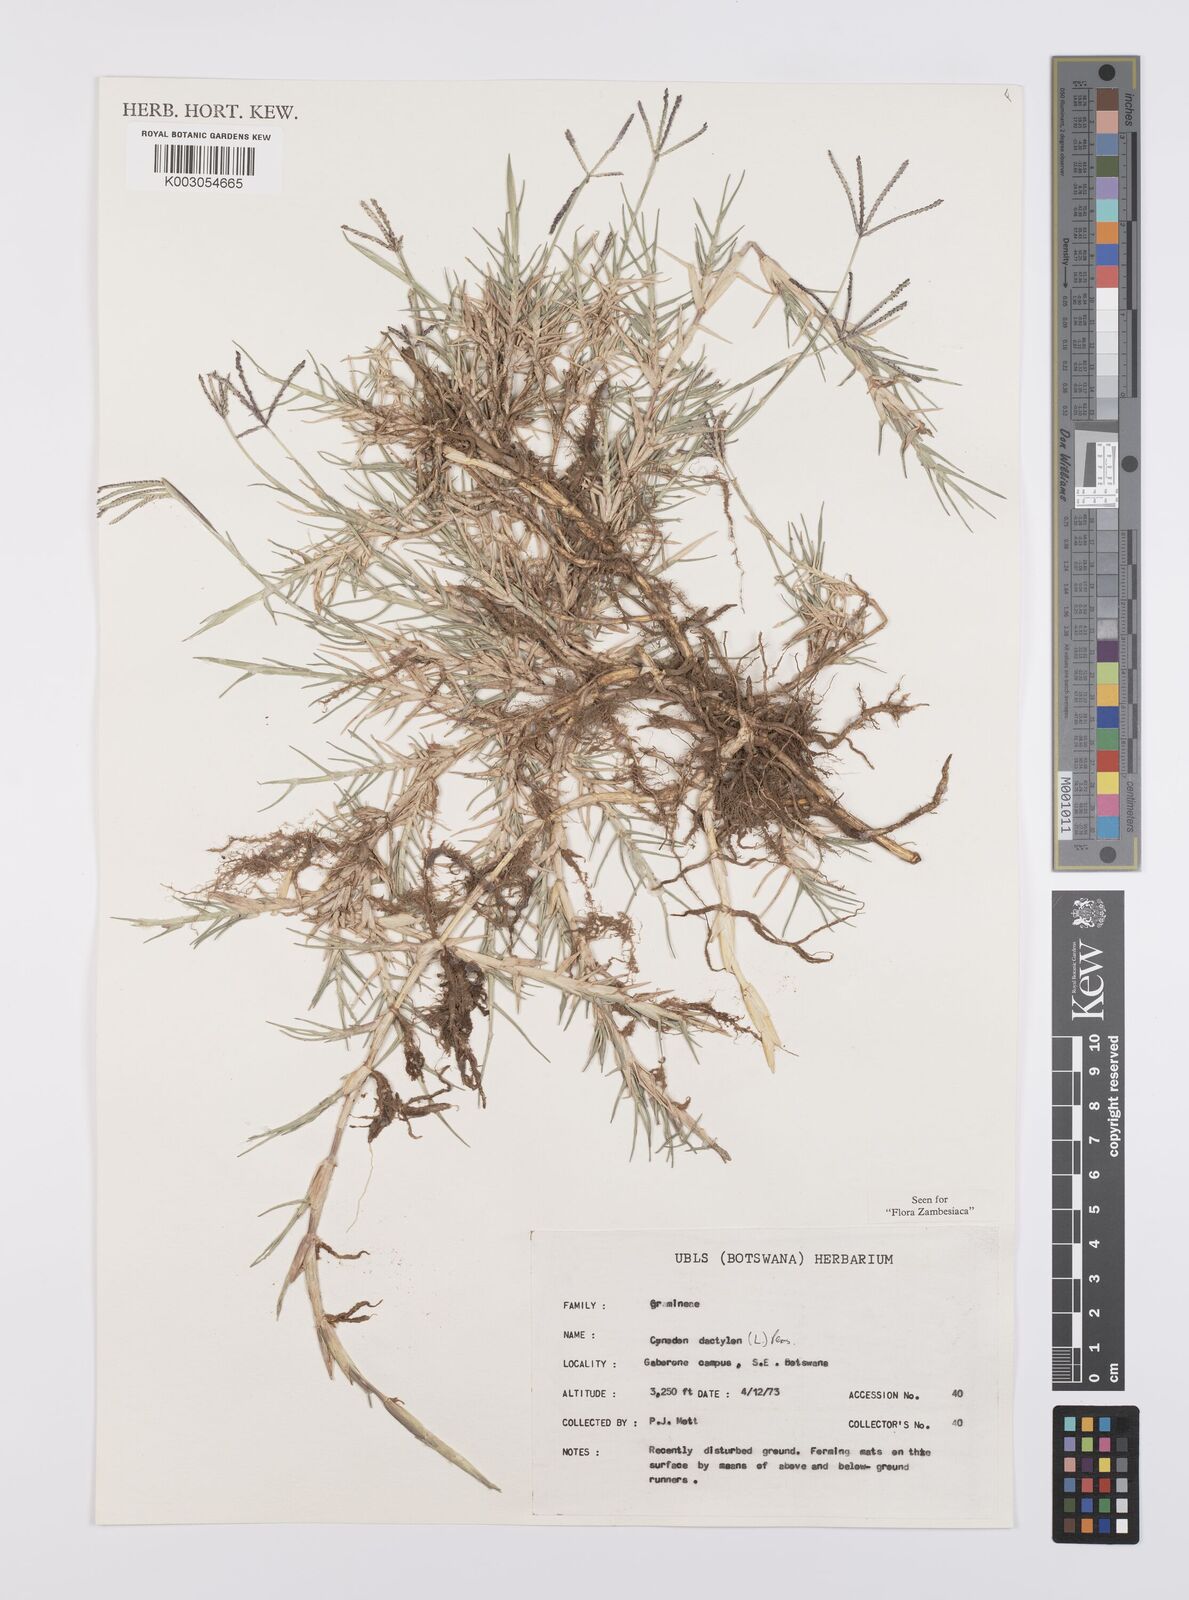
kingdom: Plantae
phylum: Tracheophyta
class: Liliopsida
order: Poales
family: Poaceae
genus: Cynodon
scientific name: Cynodon dactylon
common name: Bermuda grass
